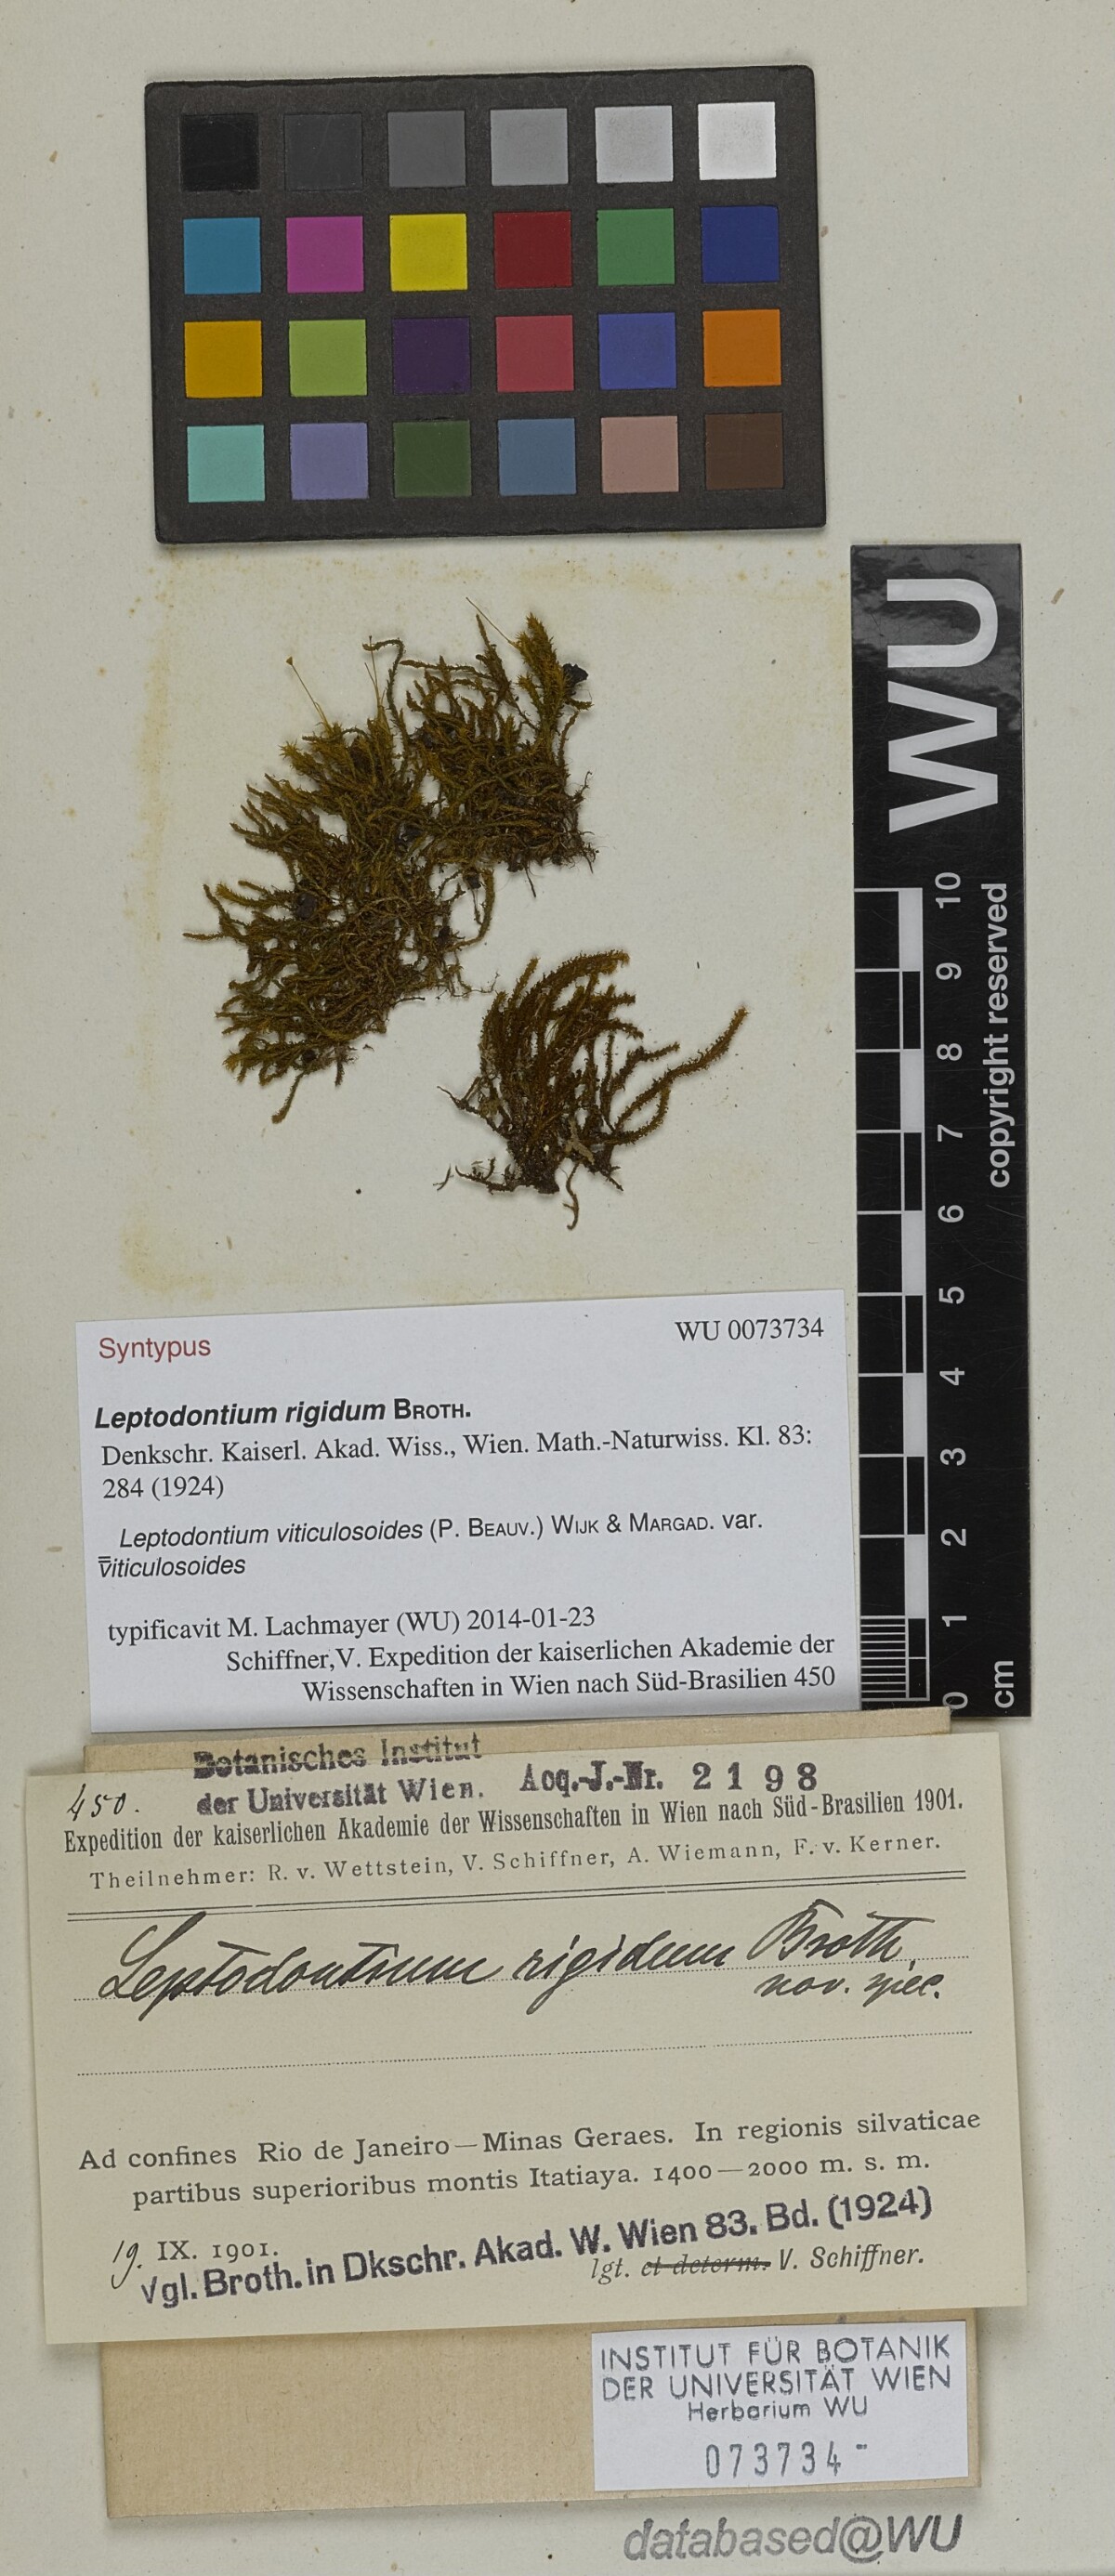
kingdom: Plantae
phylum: Bryophyta
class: Bryopsida
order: Pottiales
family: Pottiaceae
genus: Leptodontium
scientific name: Leptodontium viticulosoides
